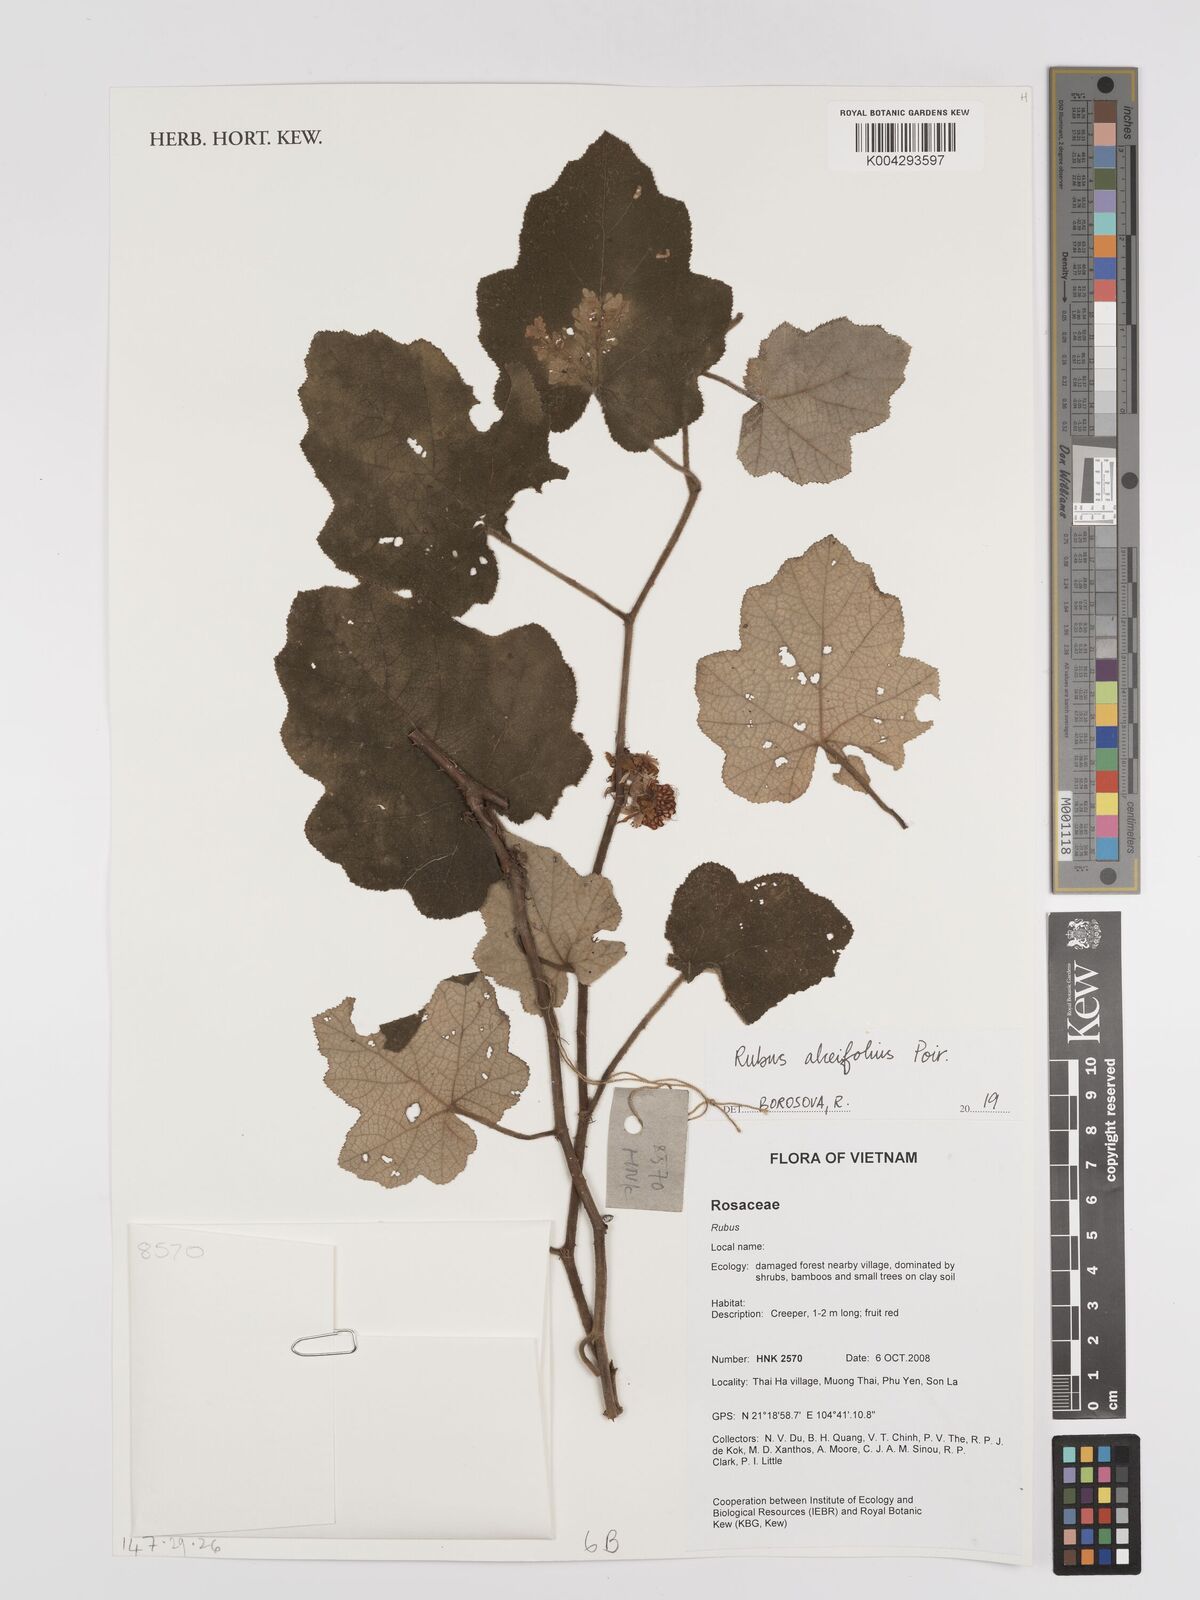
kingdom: Plantae
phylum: Tracheophyta
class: Magnoliopsida
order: Rosales
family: Rosaceae
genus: Rubus
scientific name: Rubus alceifolius
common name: Giant bramble
